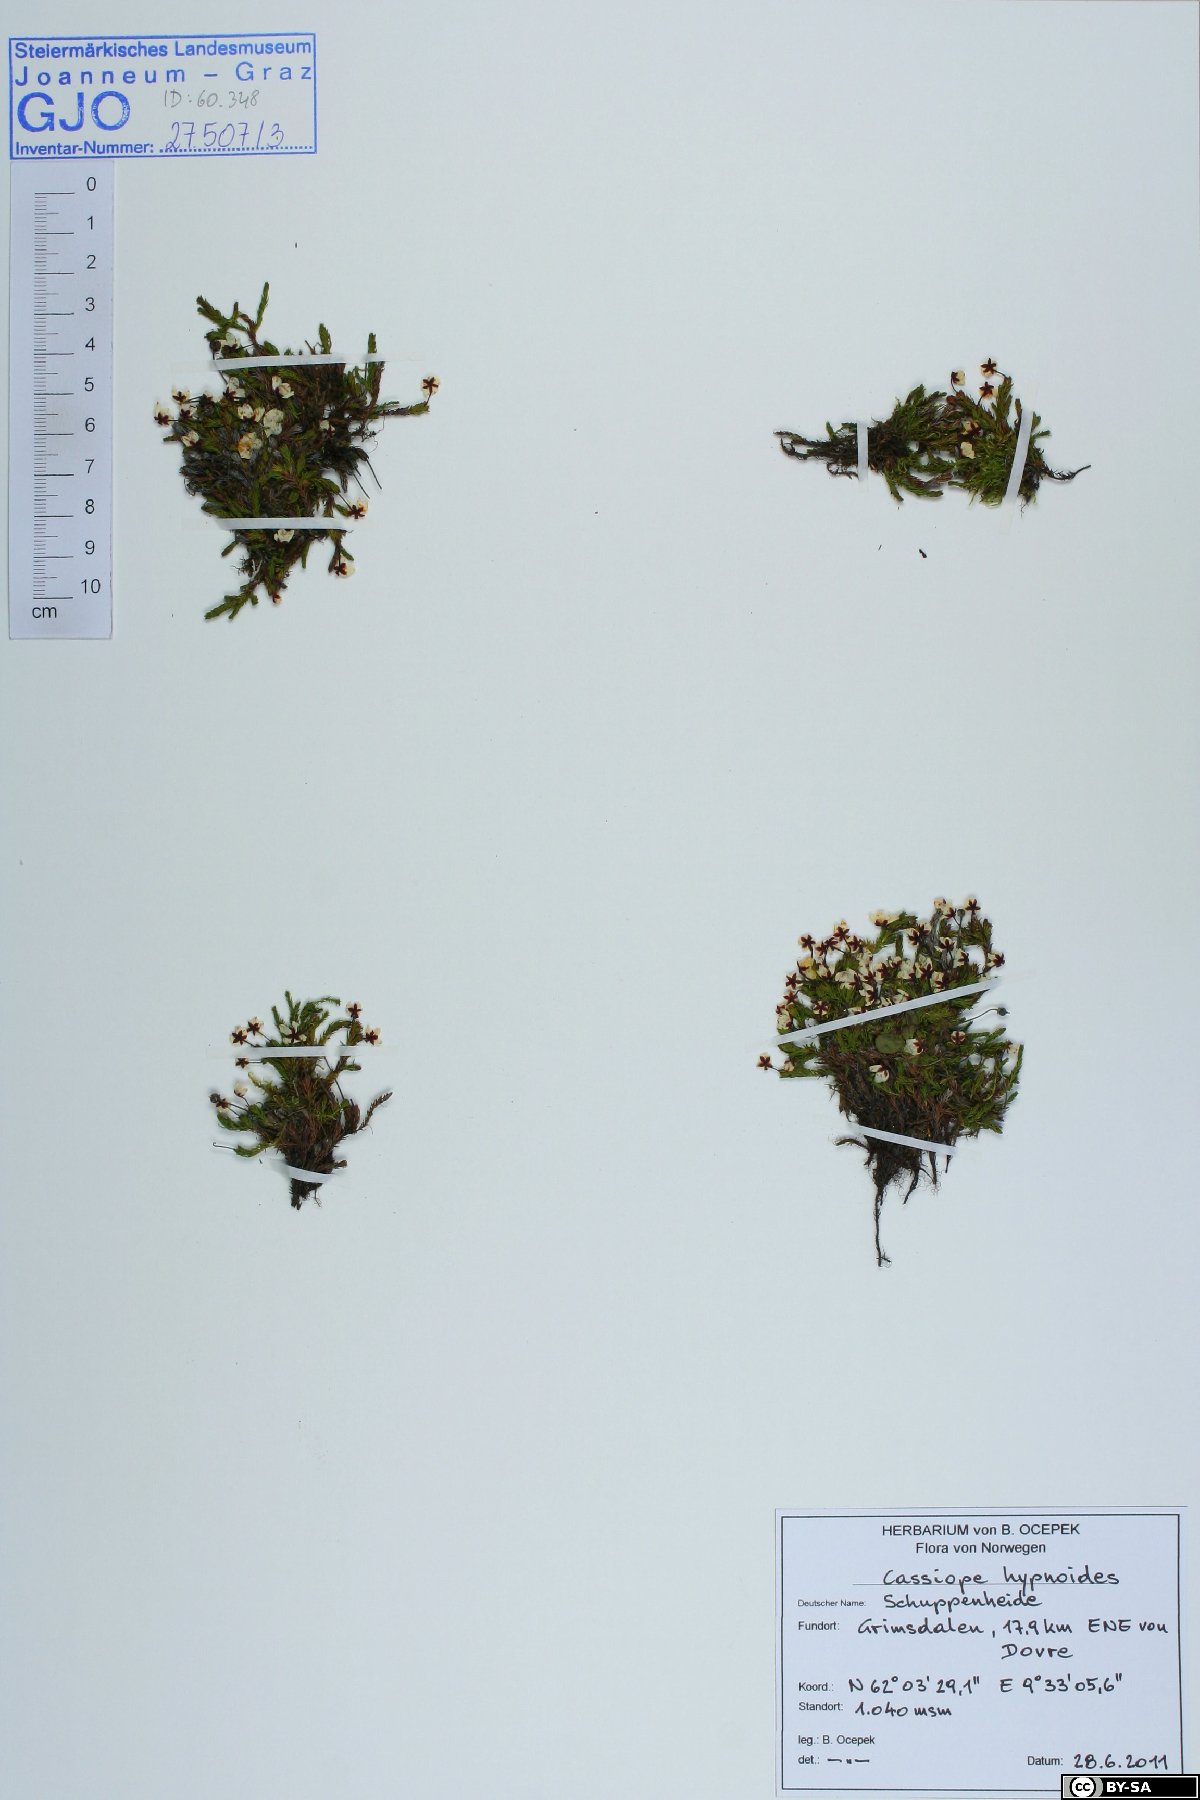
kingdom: Plantae
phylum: Tracheophyta
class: Magnoliopsida
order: Ericales
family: Ericaceae
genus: Harrimanella
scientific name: Harrimanella hypnoides
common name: Moss bell heather
